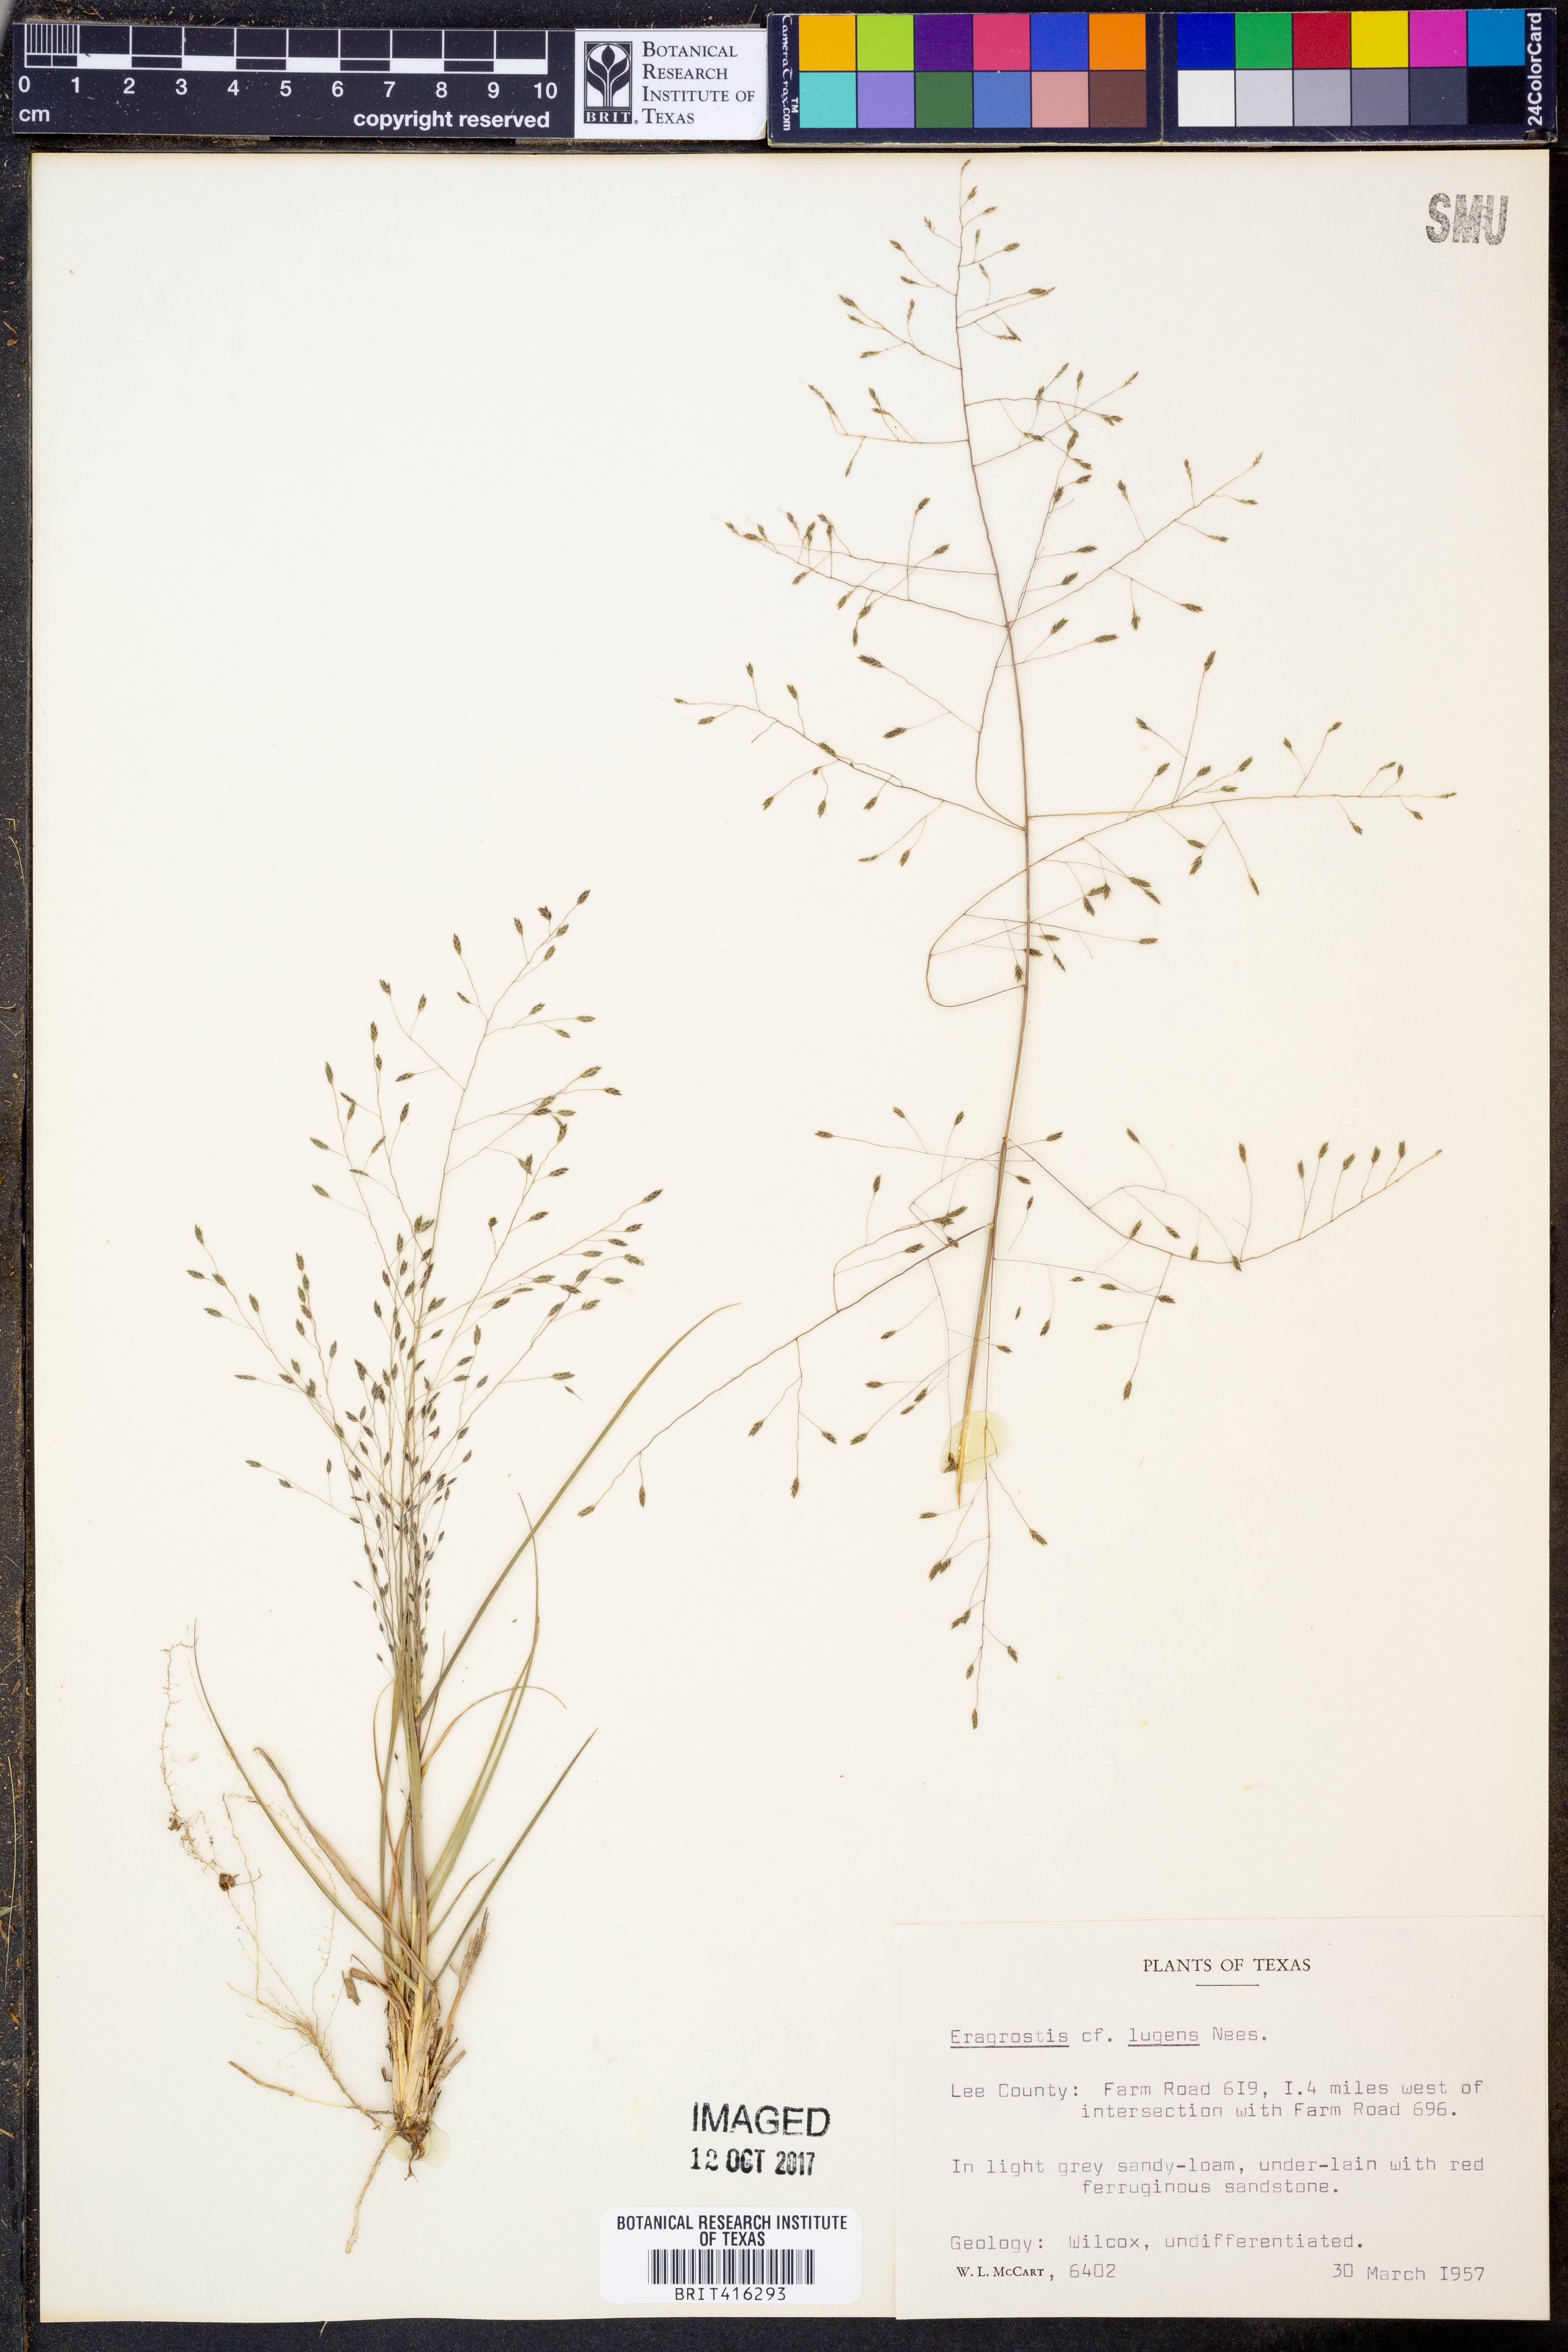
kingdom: Plantae
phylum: Tracheophyta
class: Liliopsida
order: Poales
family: Poaceae
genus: Eragrostis
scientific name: Eragrostis capillaris
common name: Hair-like lovegrass
